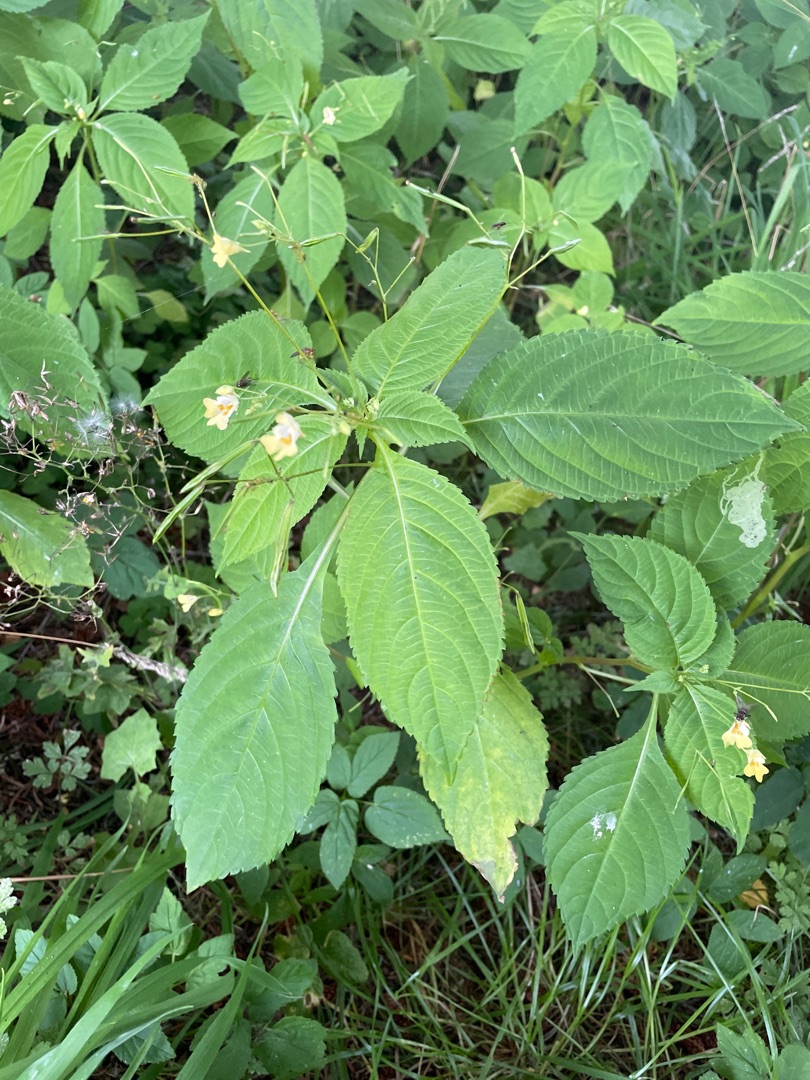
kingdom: Plantae
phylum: Tracheophyta
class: Magnoliopsida
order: Ericales
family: Balsaminaceae
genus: Impatiens
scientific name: Impatiens parviflora
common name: Småblomstret balsamin
